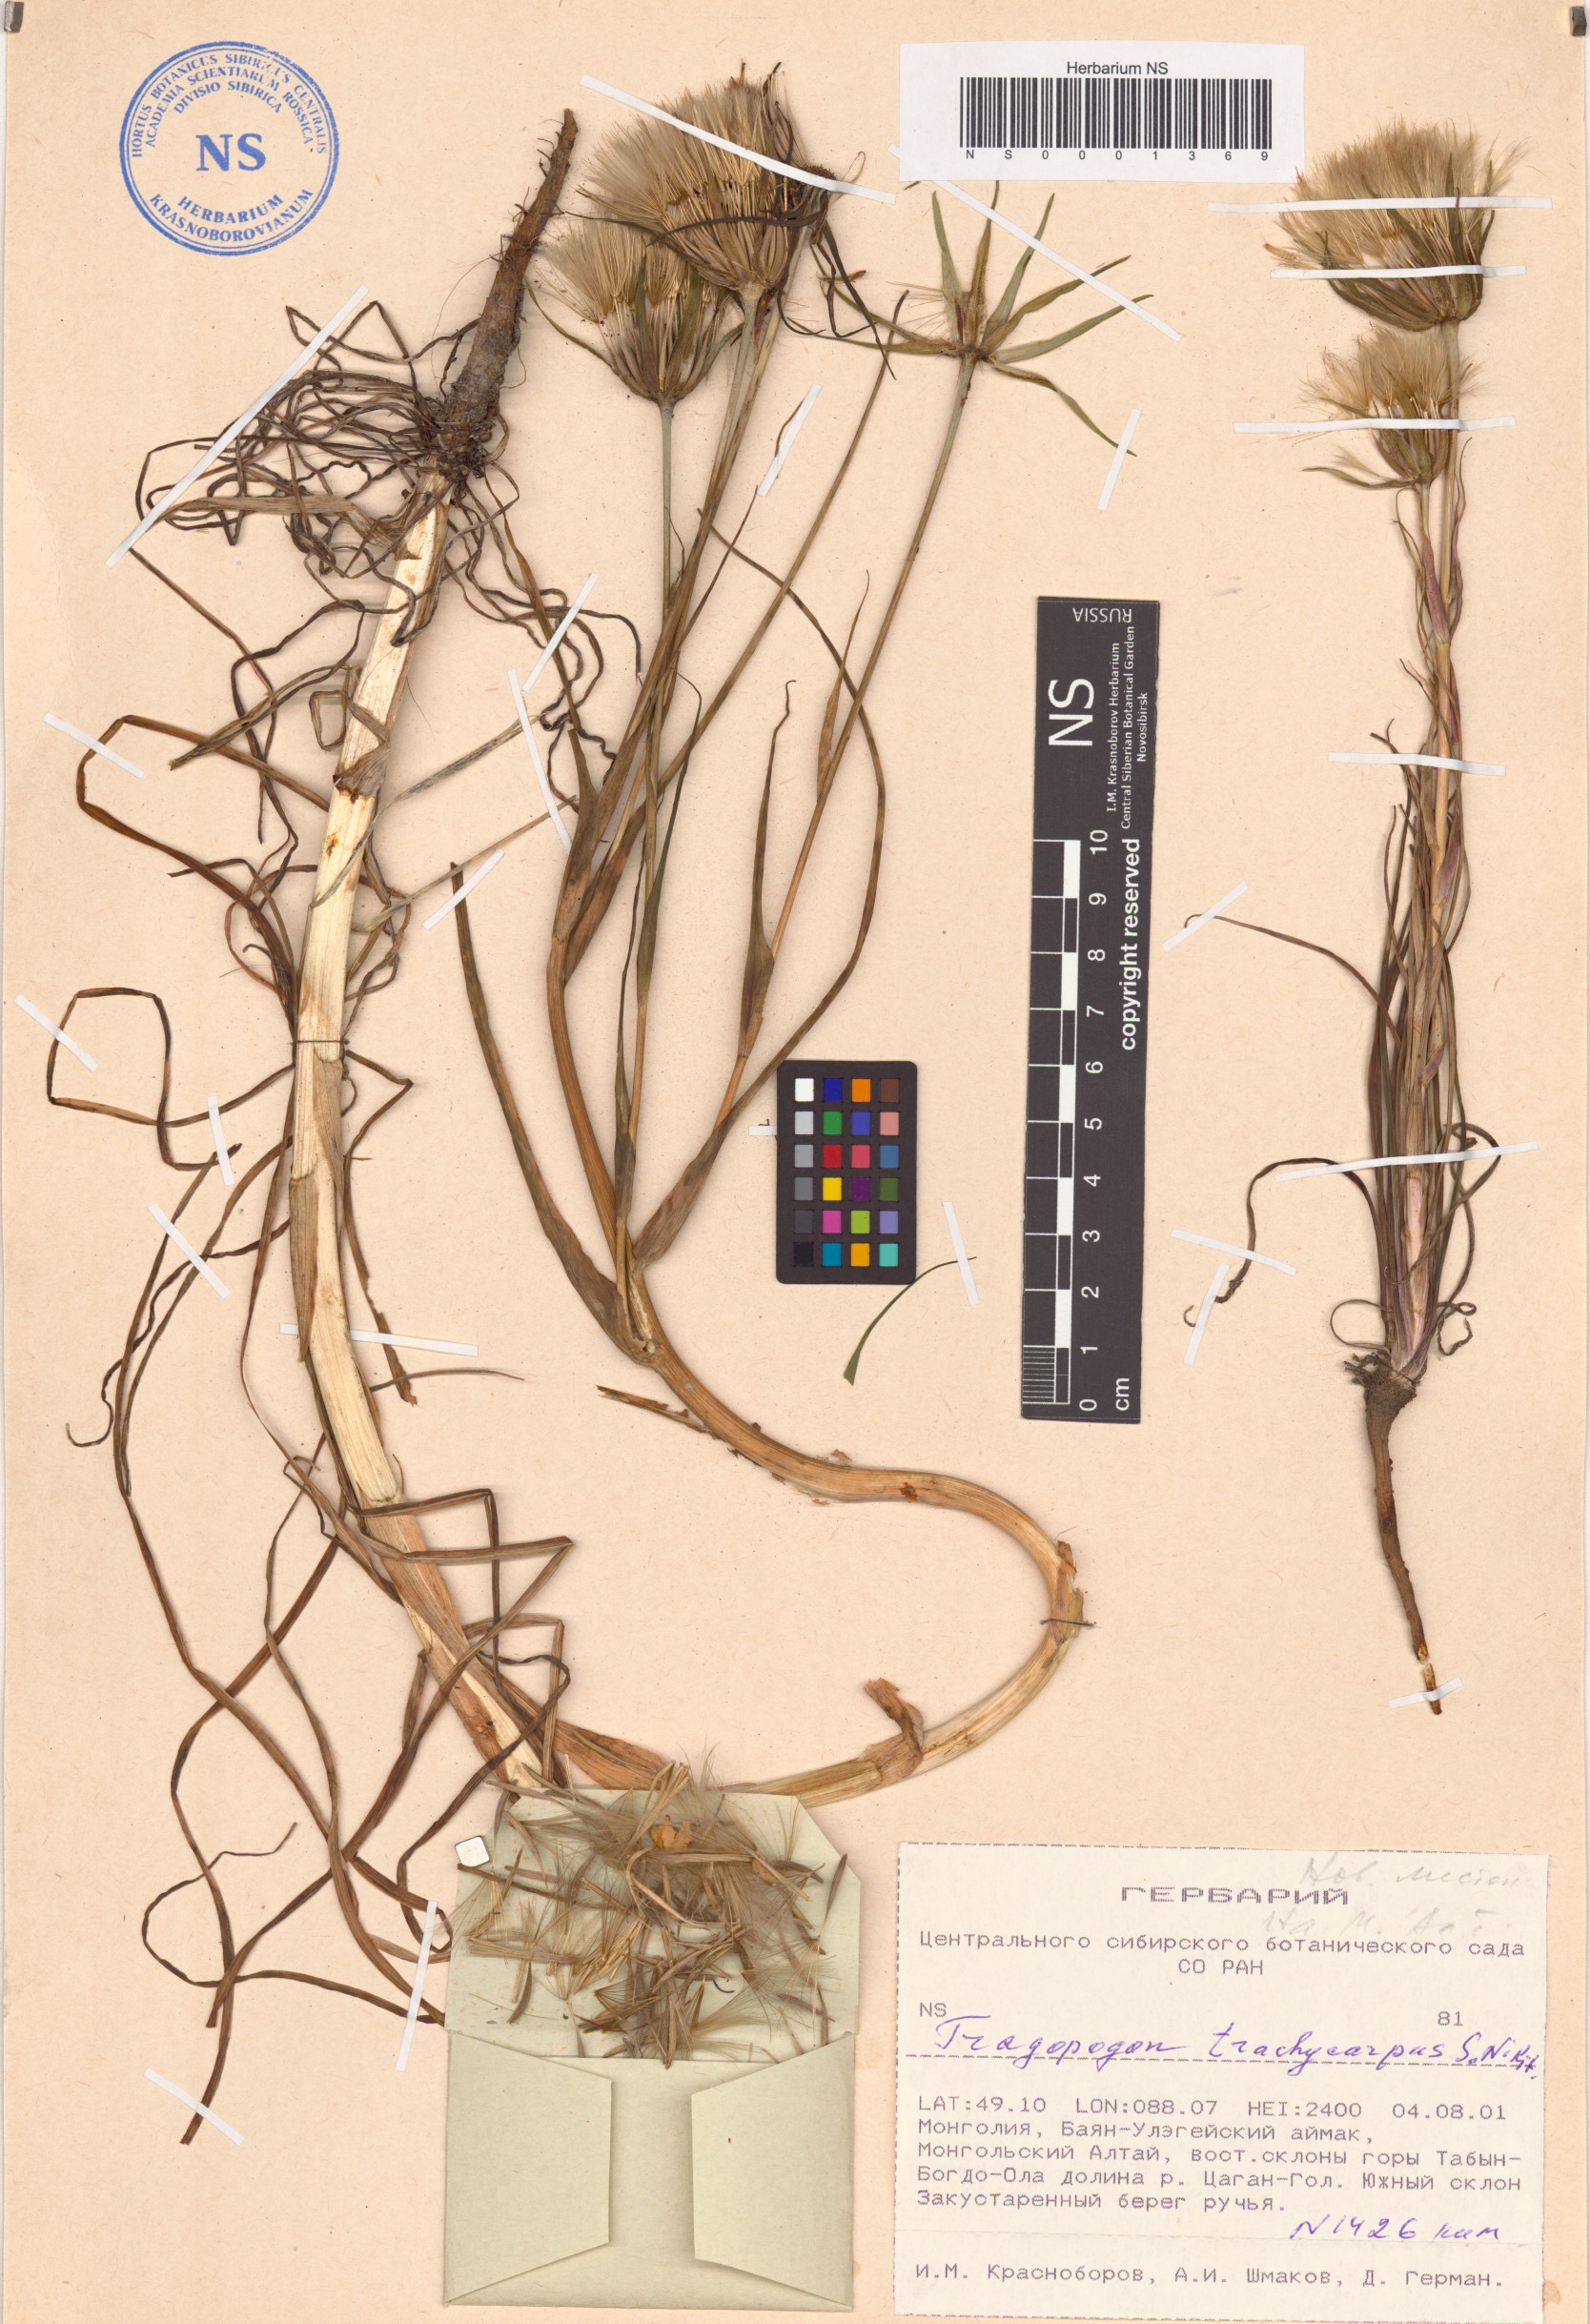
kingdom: Plantae
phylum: Tracheophyta
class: Magnoliopsida
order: Asterales
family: Asteraceae
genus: Tragopogon
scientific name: Tragopogon trachycarpus
